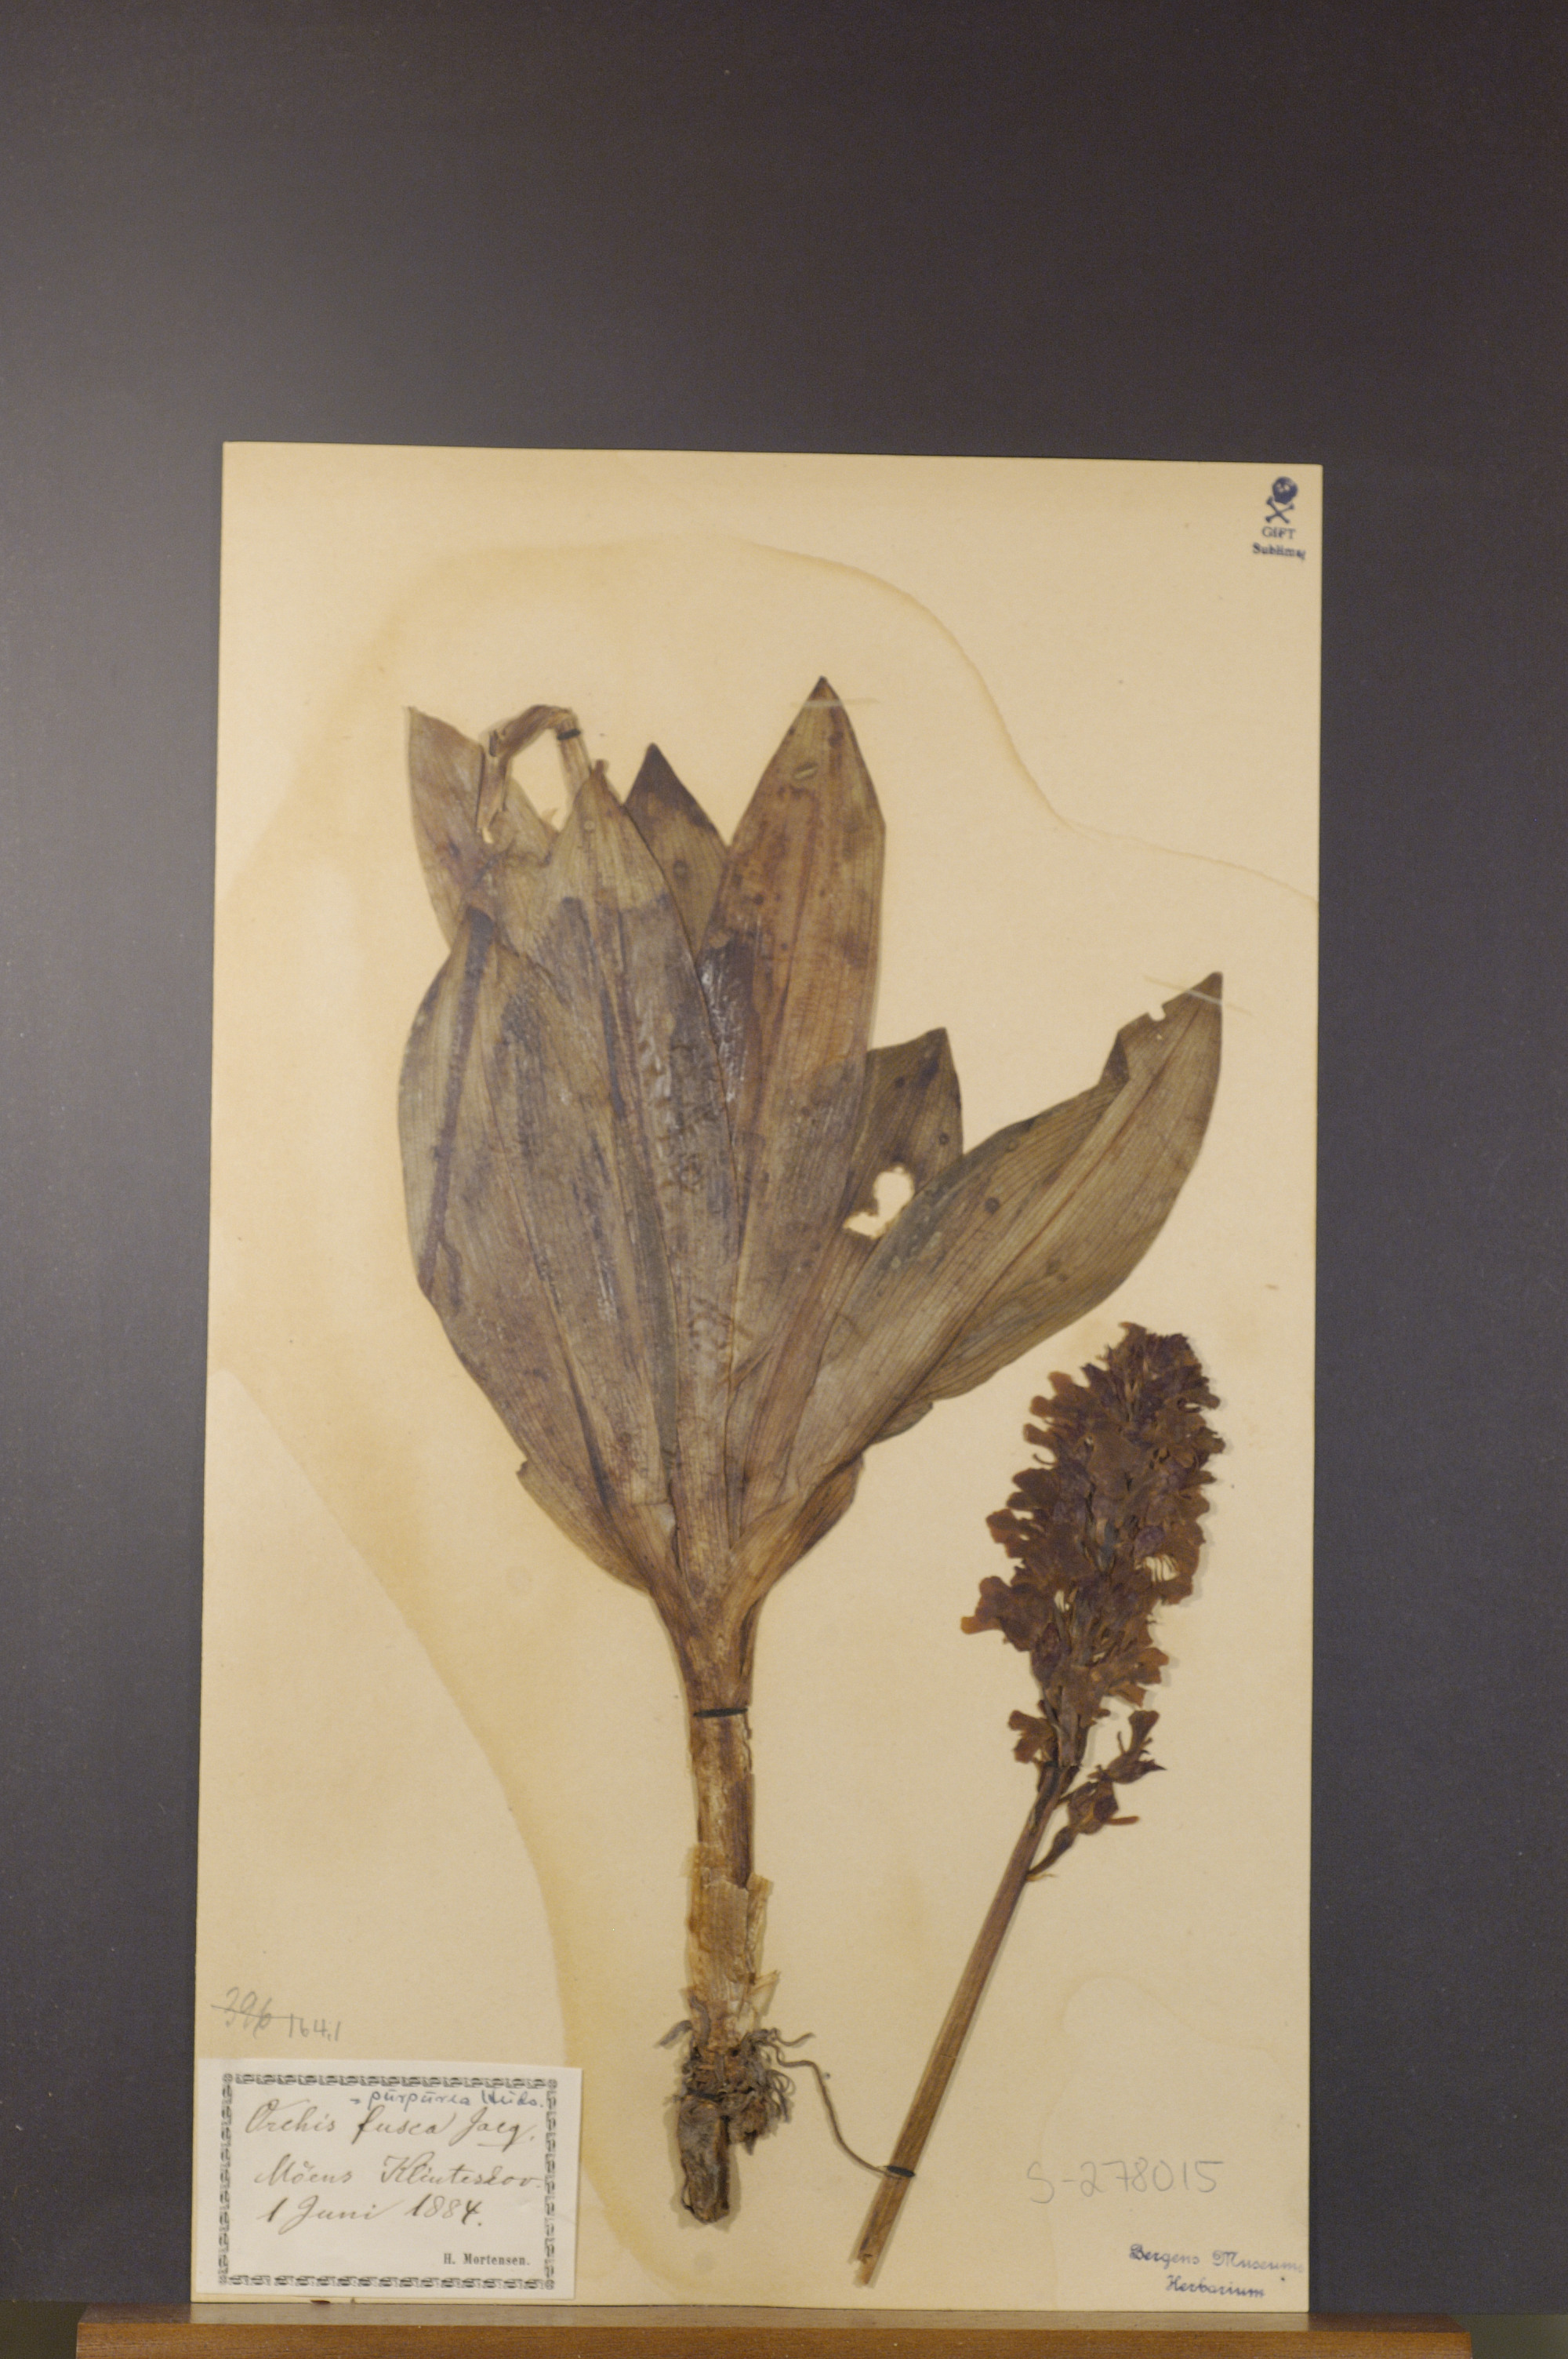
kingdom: Plantae
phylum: Tracheophyta
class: Liliopsida
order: Asparagales
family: Orchidaceae
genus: Orchis
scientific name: Orchis purpurea
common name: Lady orchid
